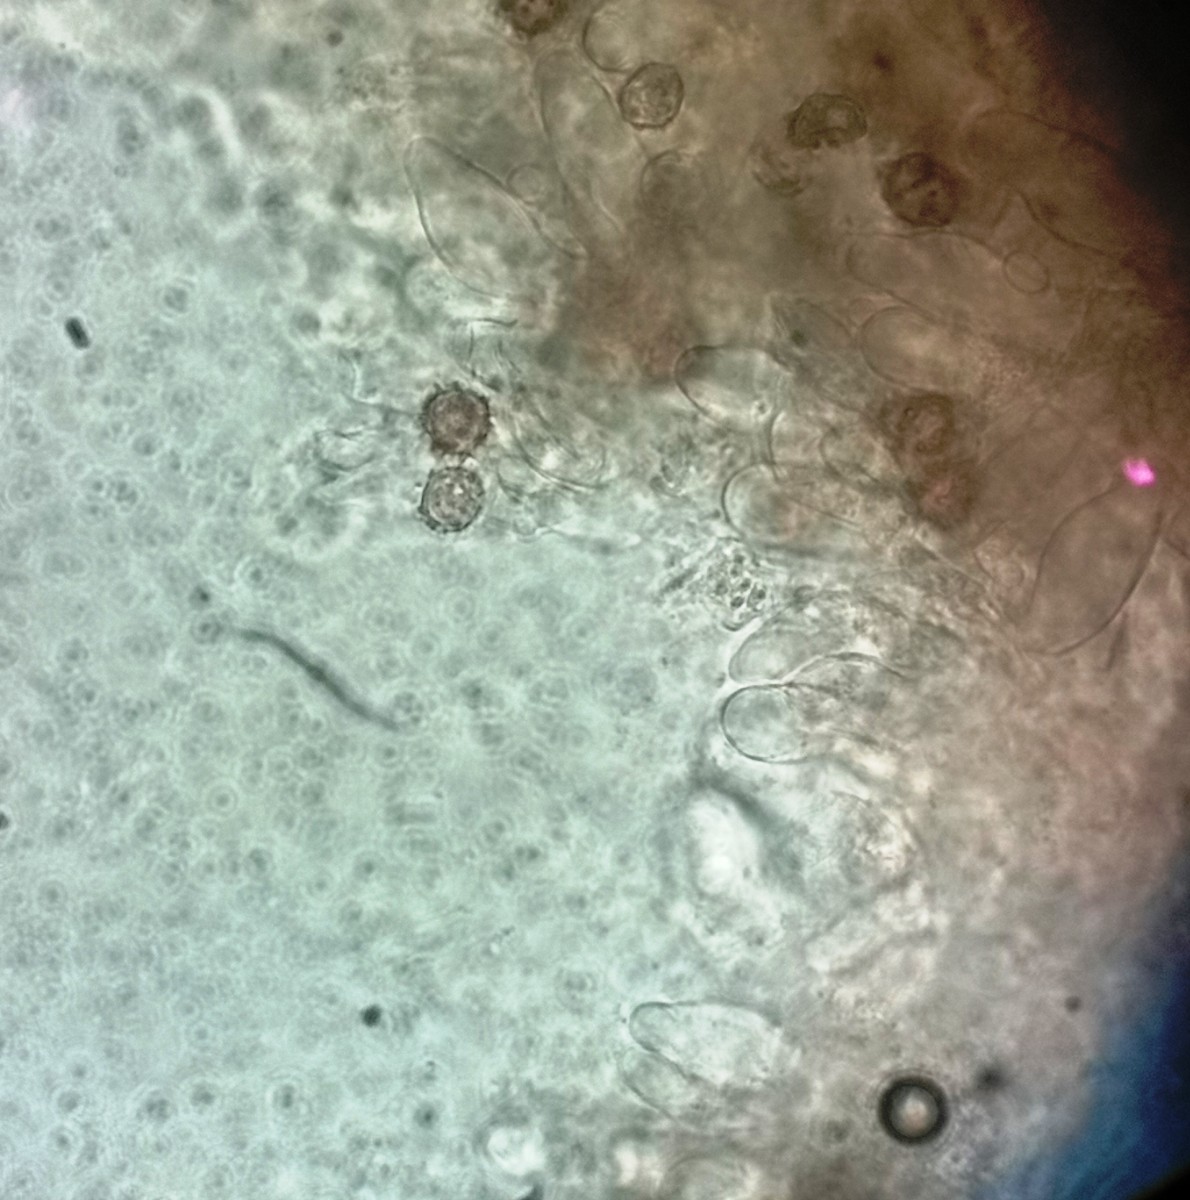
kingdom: Fungi
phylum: Basidiomycota
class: Agaricomycetes
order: Thelephorales
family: Thelephoraceae
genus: Tomentella
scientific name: Tomentella
